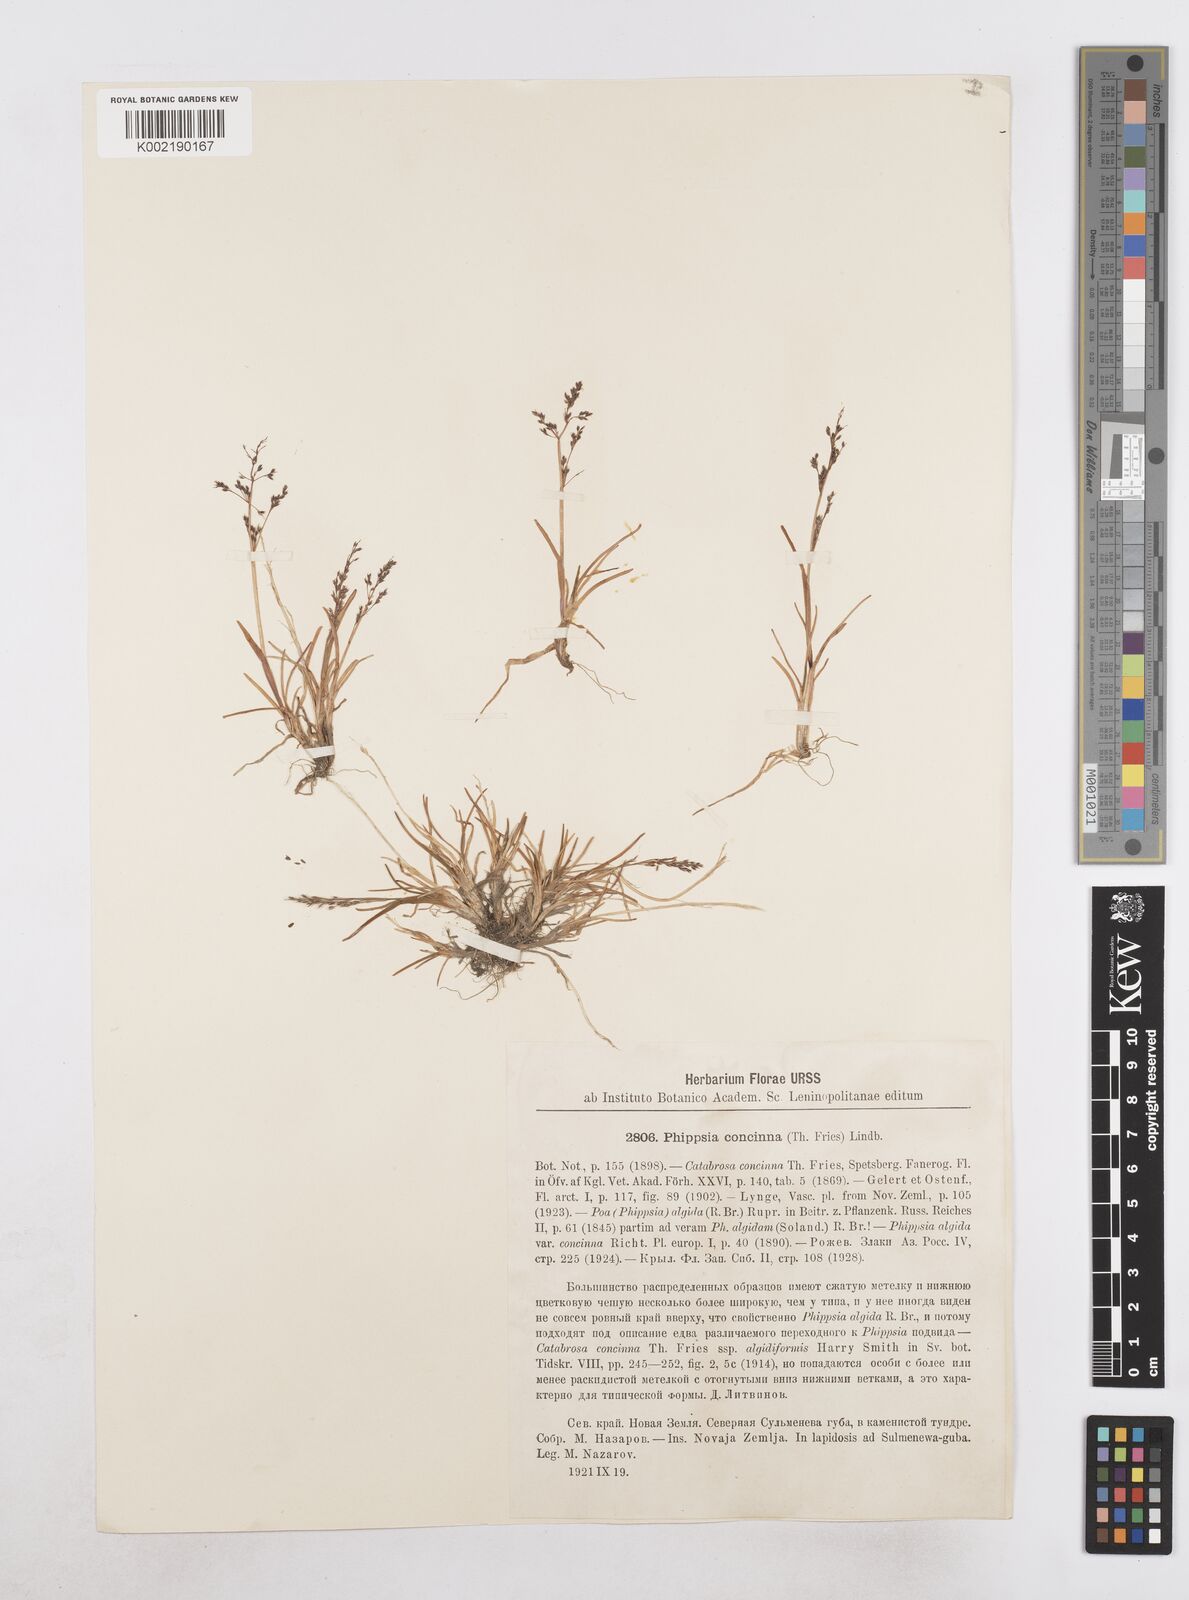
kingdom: Plantae
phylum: Tracheophyta
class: Liliopsida
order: Poales
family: Poaceae
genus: Phippsia
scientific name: Phippsia concinna
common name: Snowgrass
